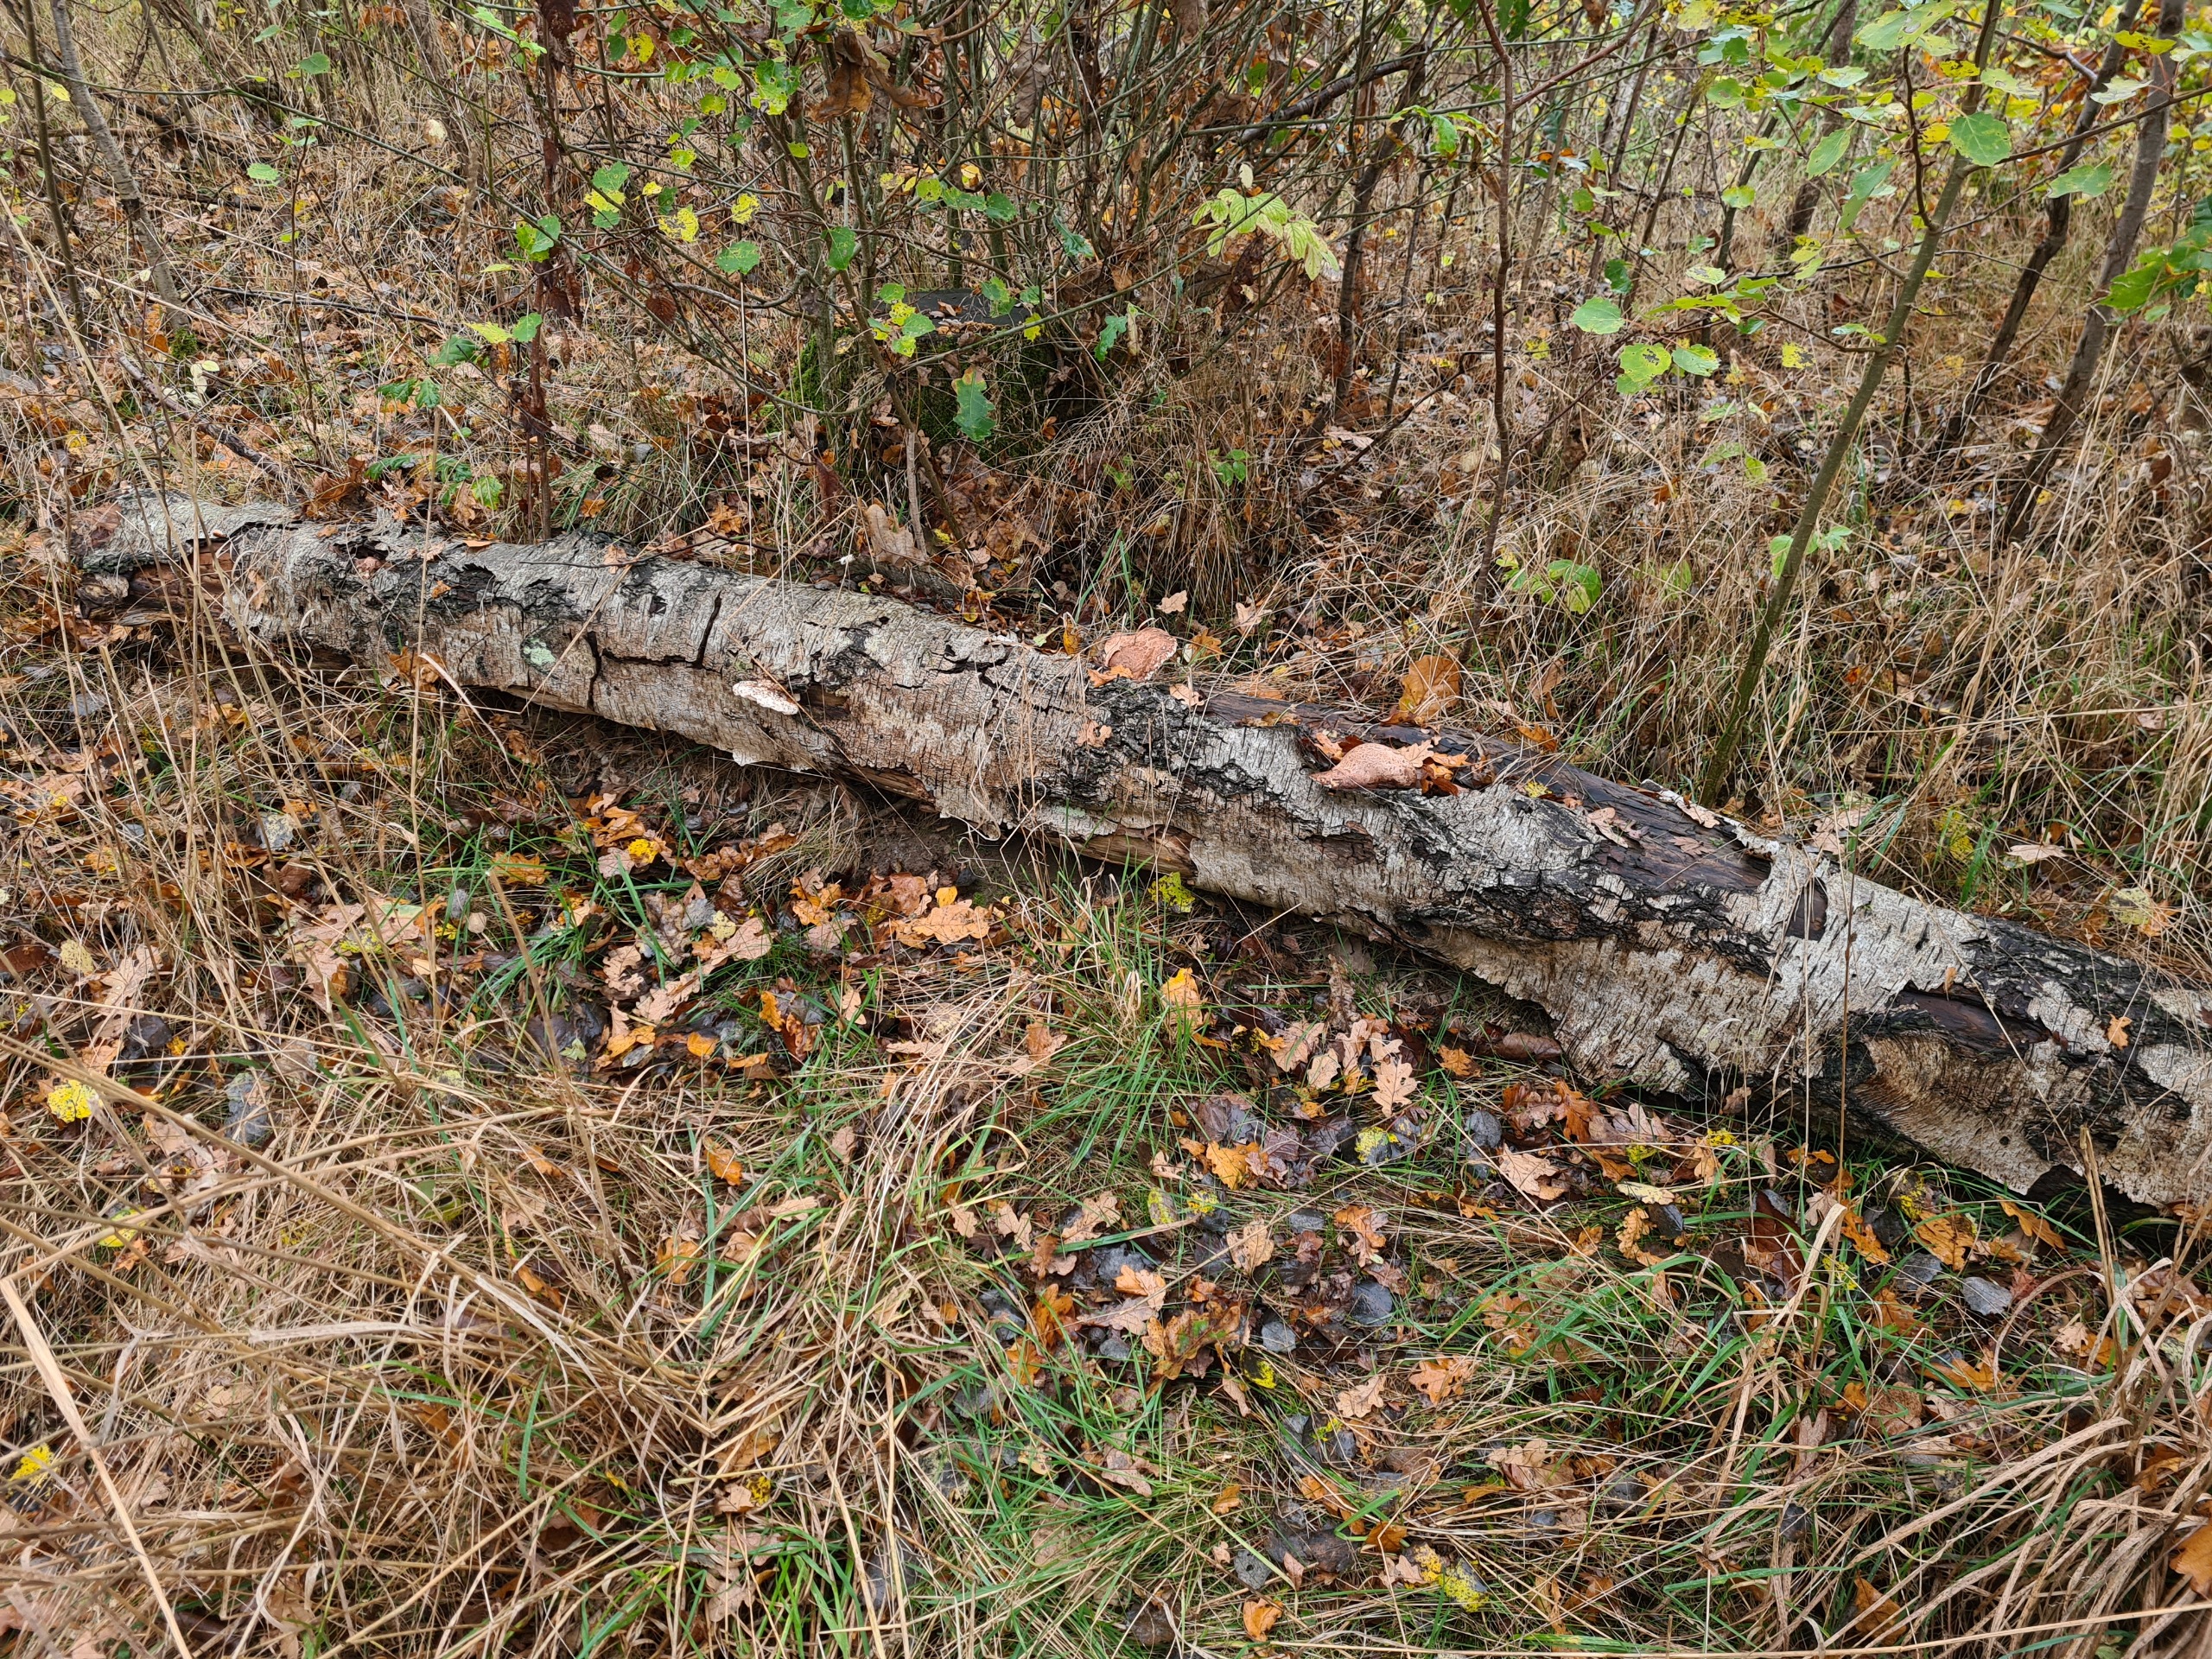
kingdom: Fungi
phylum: Basidiomycota
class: Agaricomycetes
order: Polyporales
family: Fomitopsidaceae
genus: Fomitopsis
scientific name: Fomitopsis betulina
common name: Birkeporesvamp
